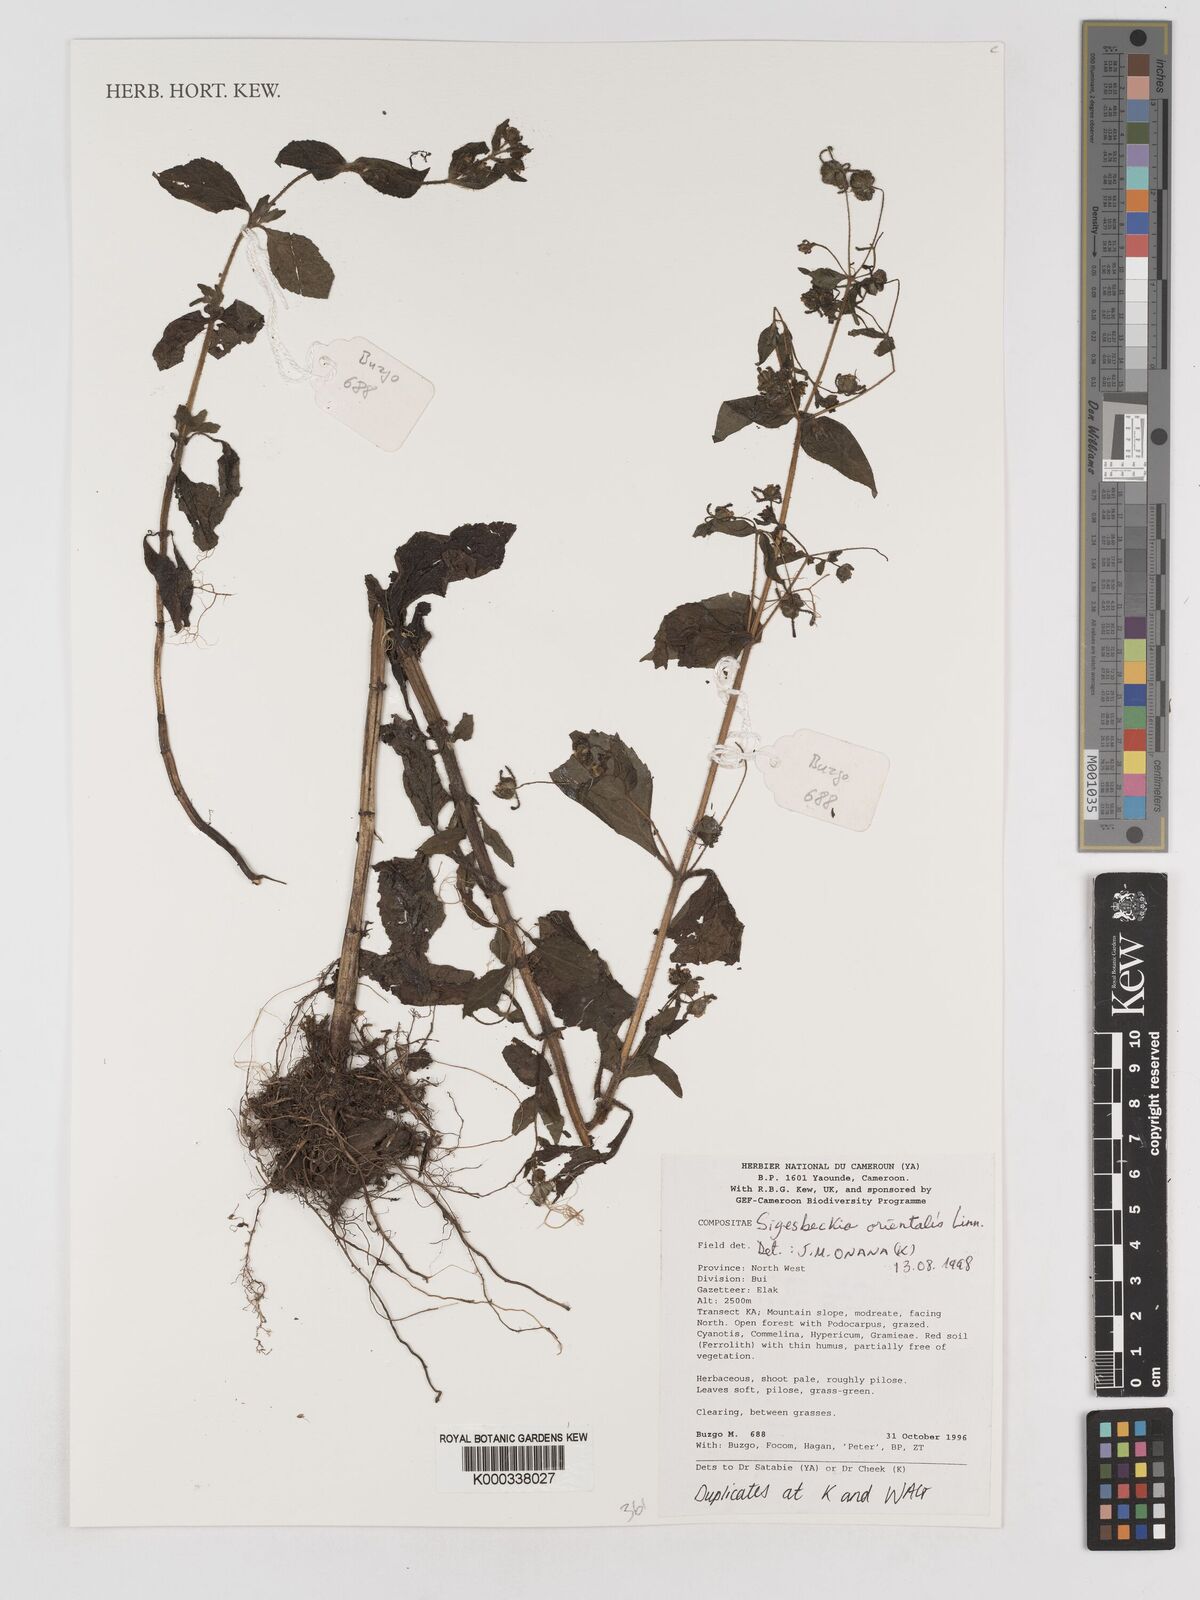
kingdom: Plantae
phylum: Tracheophyta
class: Magnoliopsida
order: Asterales
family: Asteraceae
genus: Sigesbeckia
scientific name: Sigesbeckia
